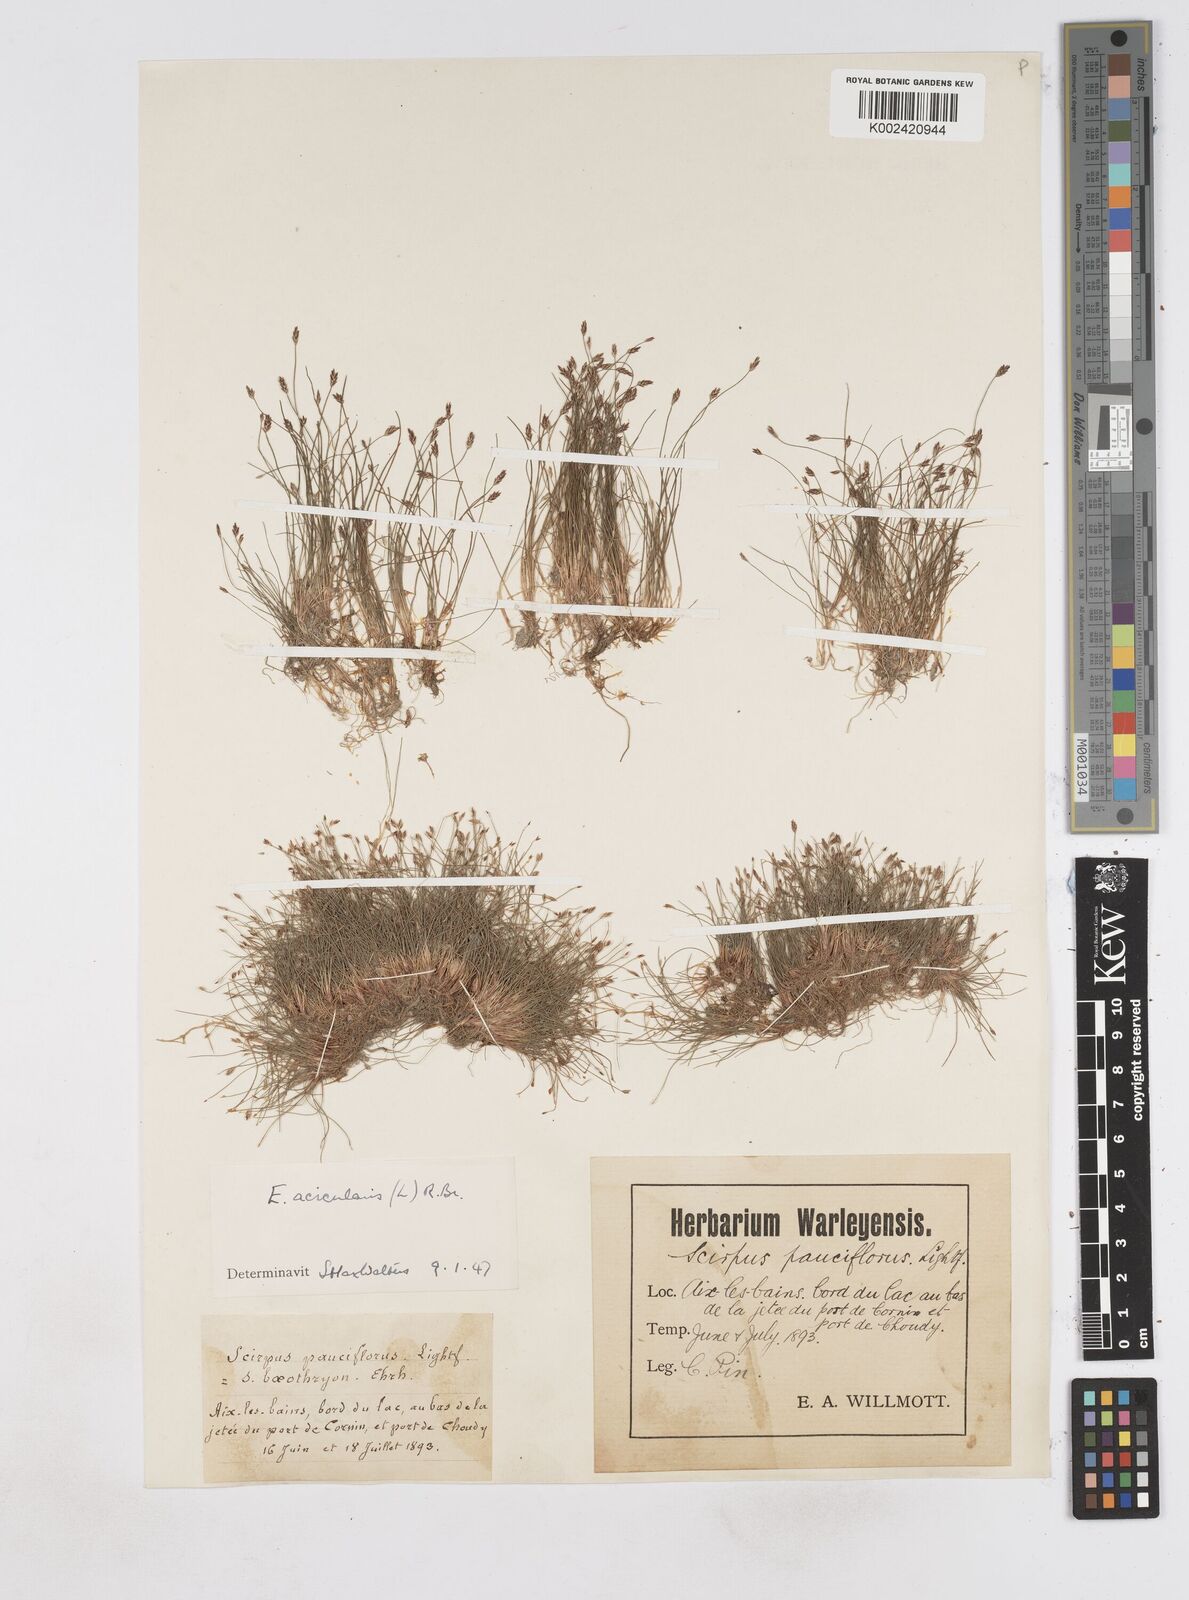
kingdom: Plantae
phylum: Tracheophyta
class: Liliopsida
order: Poales
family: Cyperaceae
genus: Eleocharis
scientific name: Eleocharis acicularis
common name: Needle spike-rush
